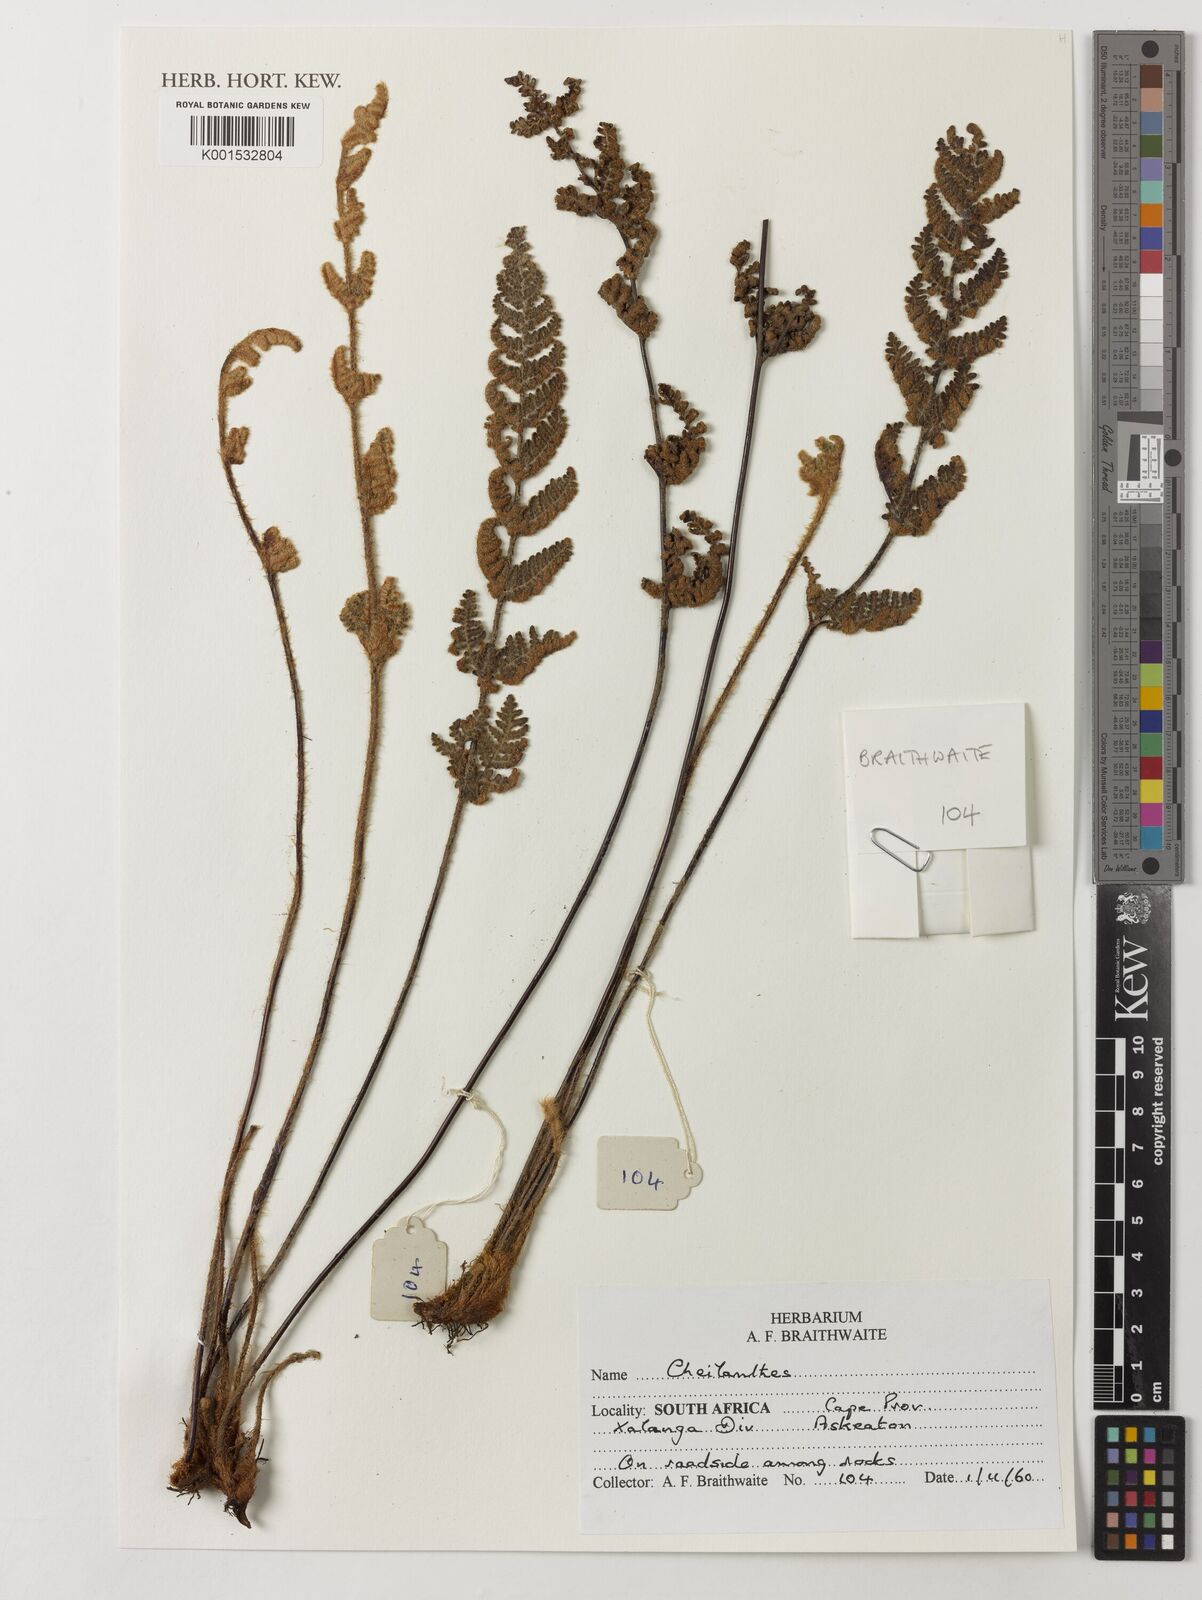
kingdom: Plantae
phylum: Tracheophyta
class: Polypodiopsida
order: Polypodiales
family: Pteridaceae
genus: Cheilanthes
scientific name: Cheilanthes
